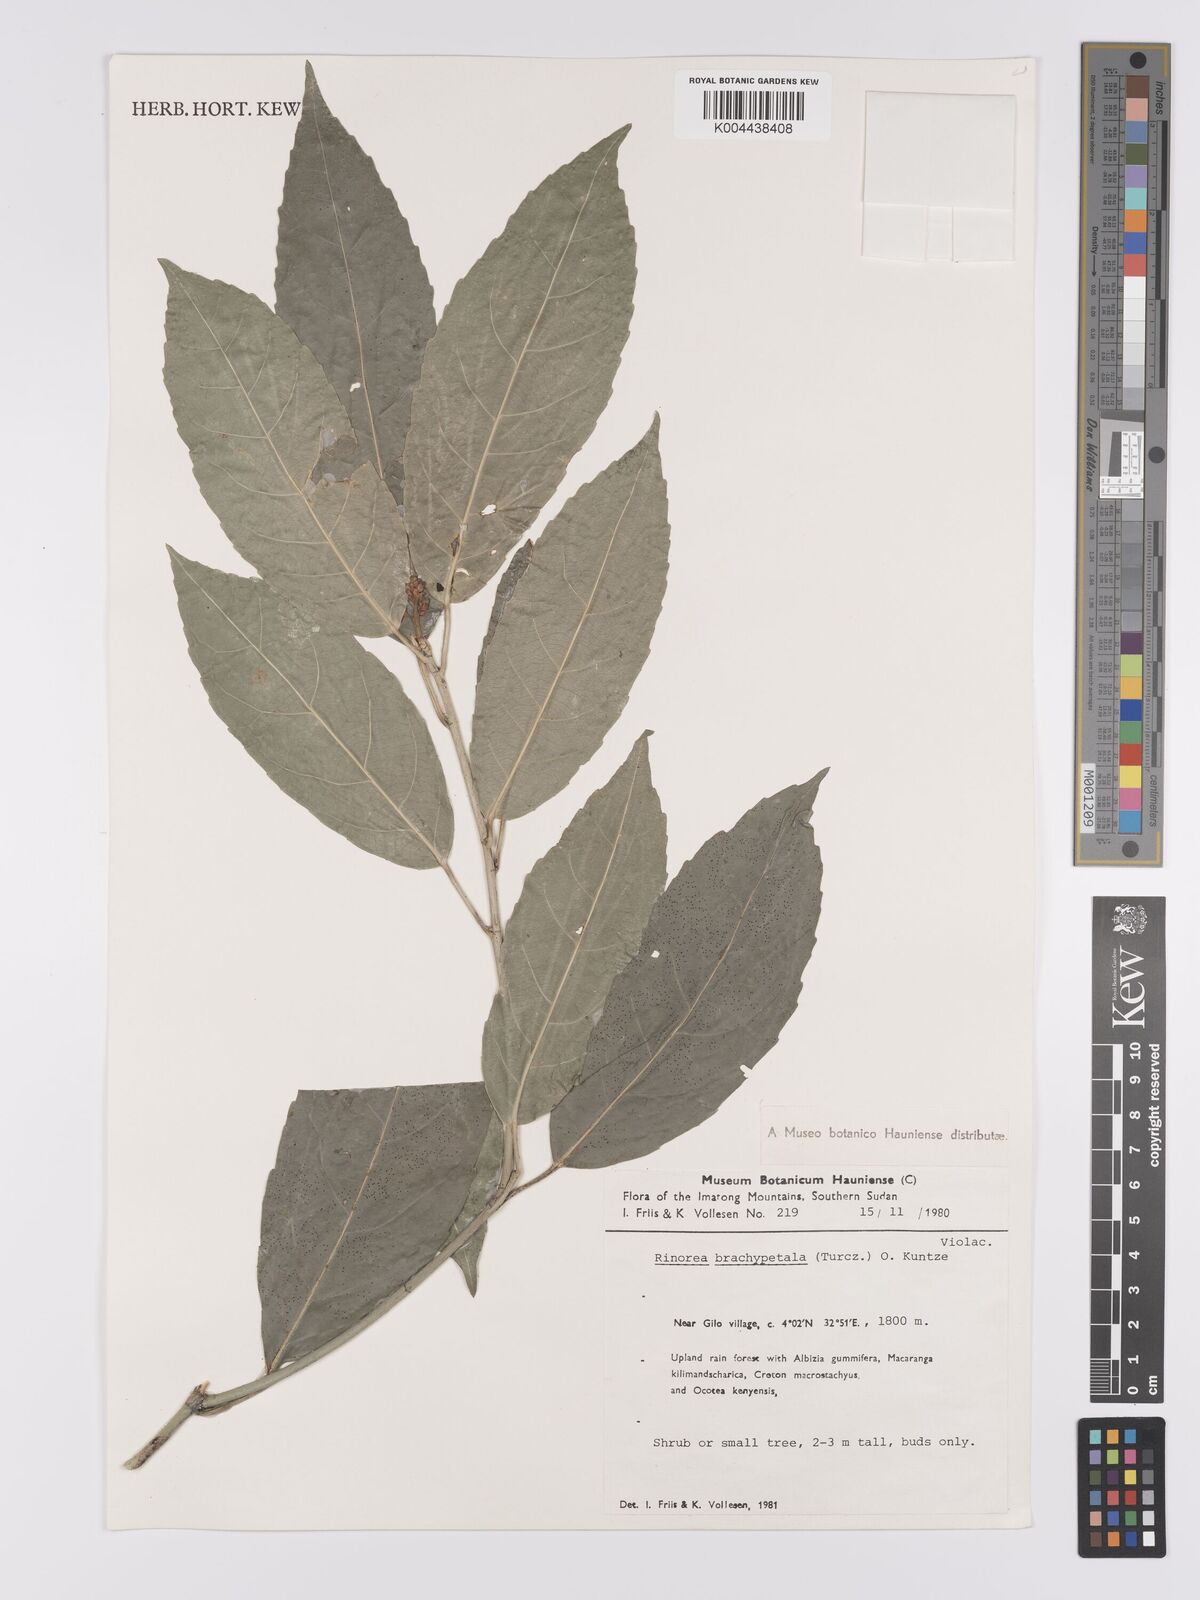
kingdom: Plantae
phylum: Tracheophyta
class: Magnoliopsida
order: Malpighiales
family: Violaceae
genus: Rinorea
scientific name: Rinorea brachypetala
